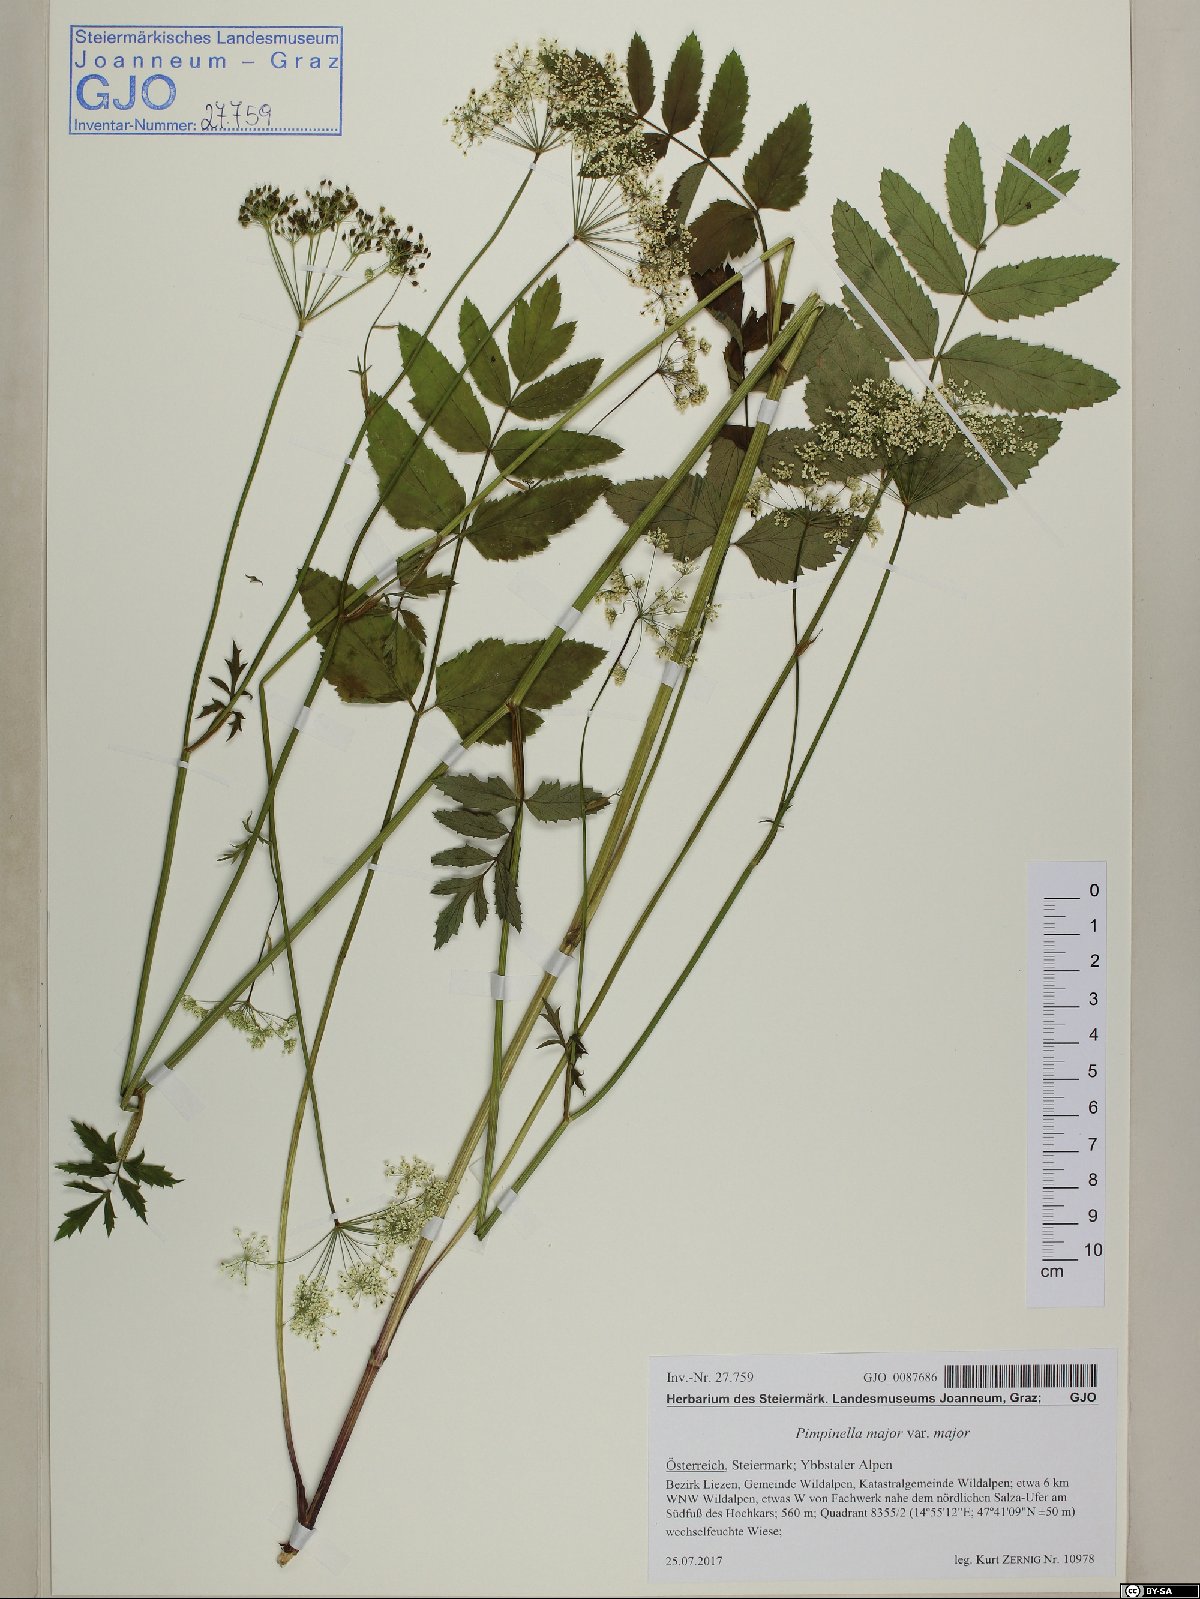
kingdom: Plantae
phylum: Tracheophyta
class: Magnoliopsida
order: Apiales
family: Apiaceae
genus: Pimpinella
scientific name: Pimpinella major
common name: Greater burnet-saxifrage
